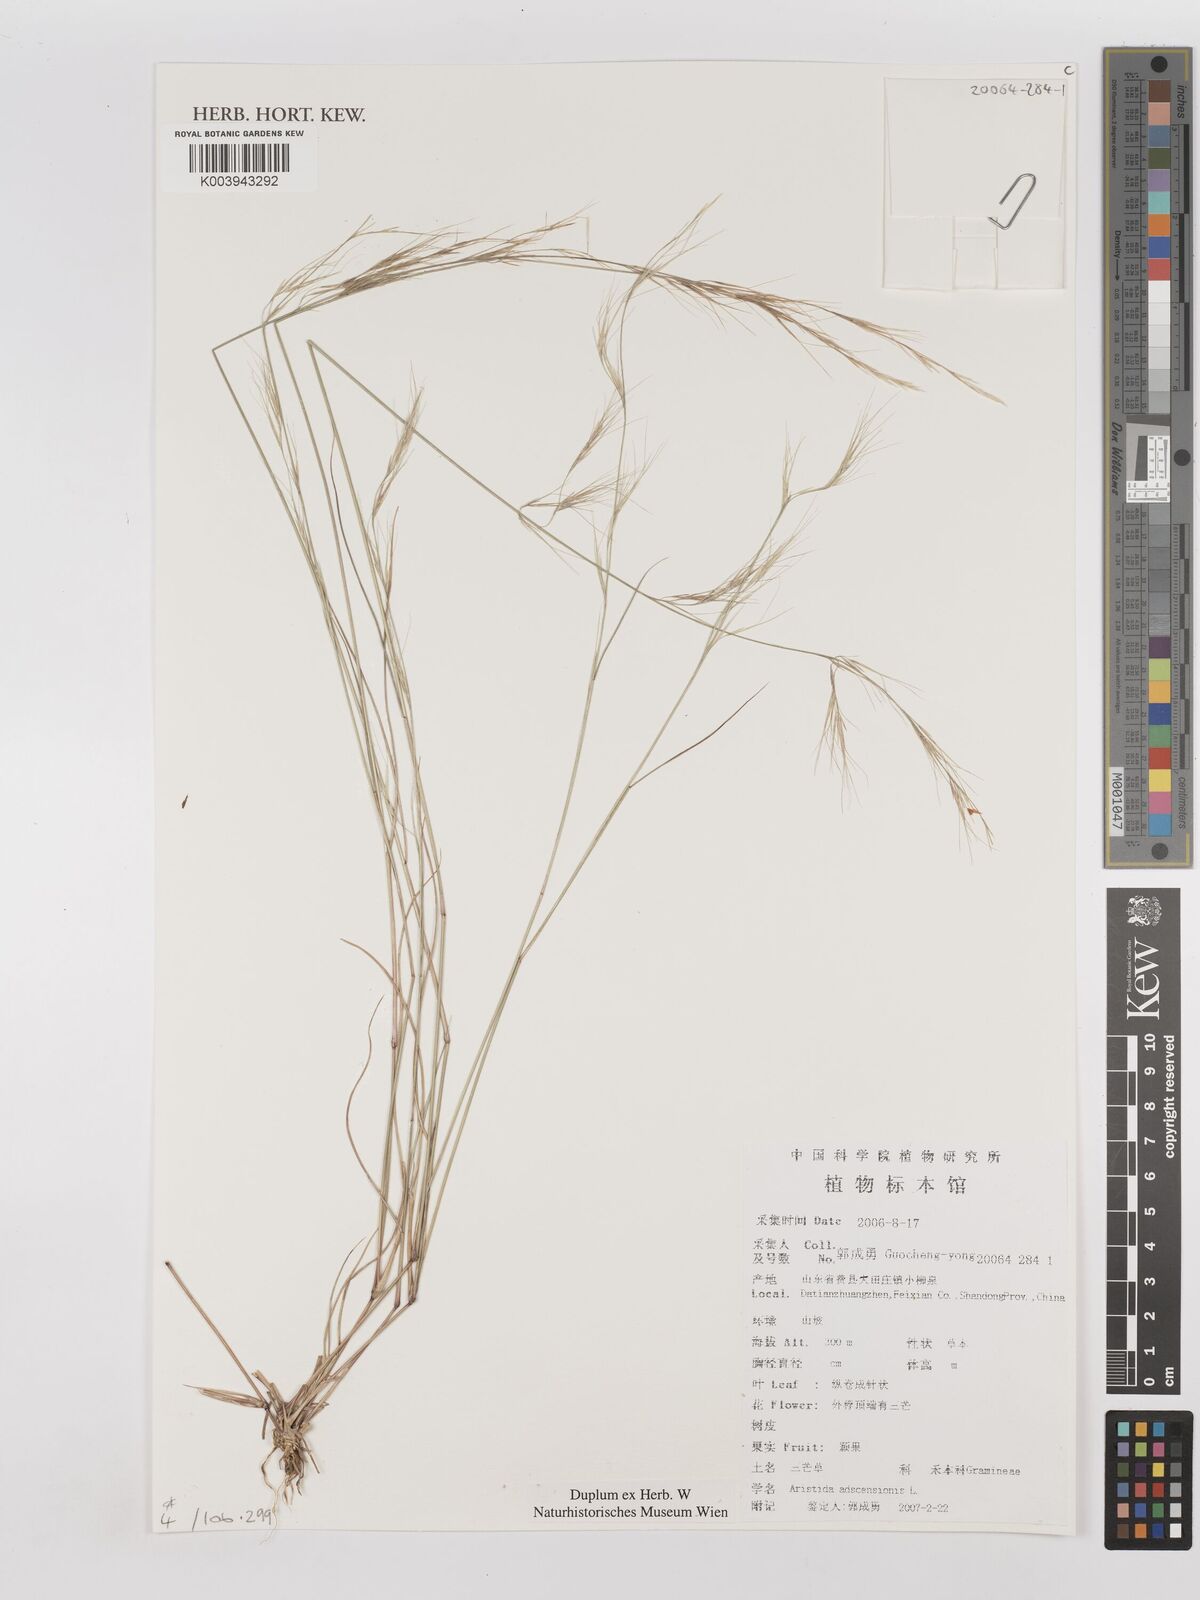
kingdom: Plantae
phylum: Tracheophyta
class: Liliopsida
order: Poales
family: Poaceae
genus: Aristida
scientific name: Aristida adscensionis
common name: Sixweeks threeawn
